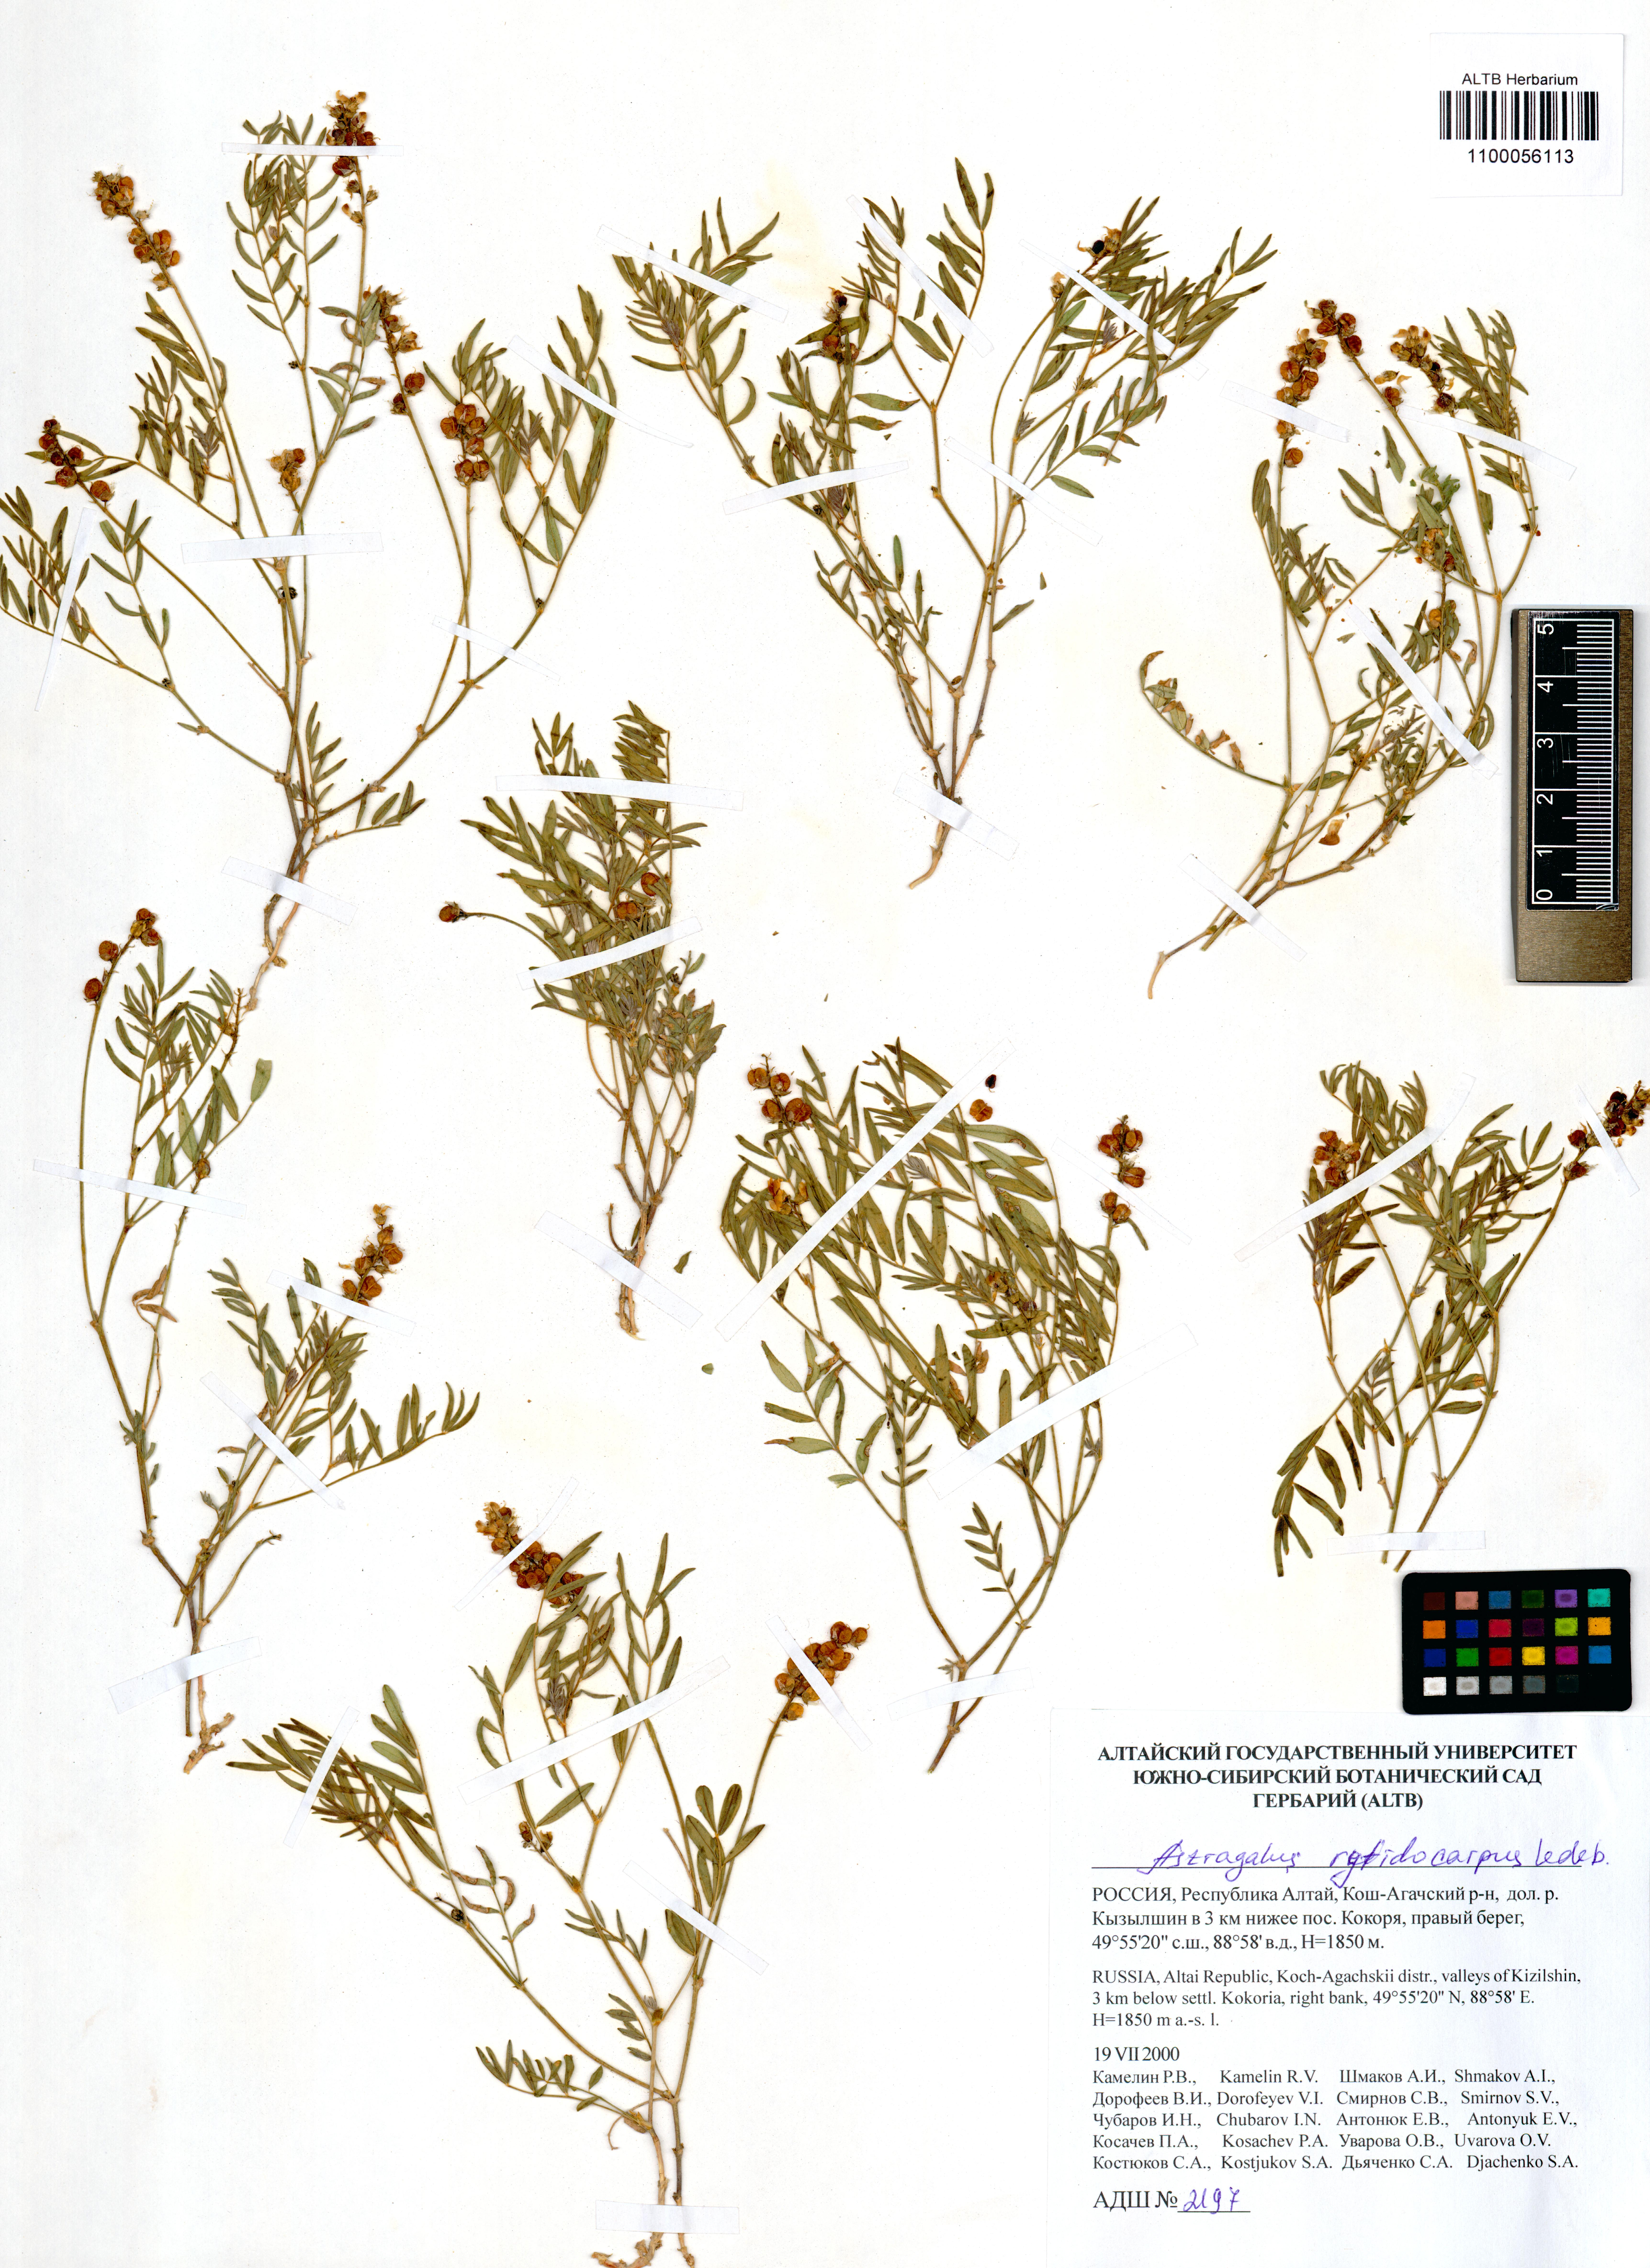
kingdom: Plantae
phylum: Tracheophyta
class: Magnoliopsida
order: Fabales
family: Fabaceae
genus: Astragalus
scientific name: Astragalus rytidocarpus
